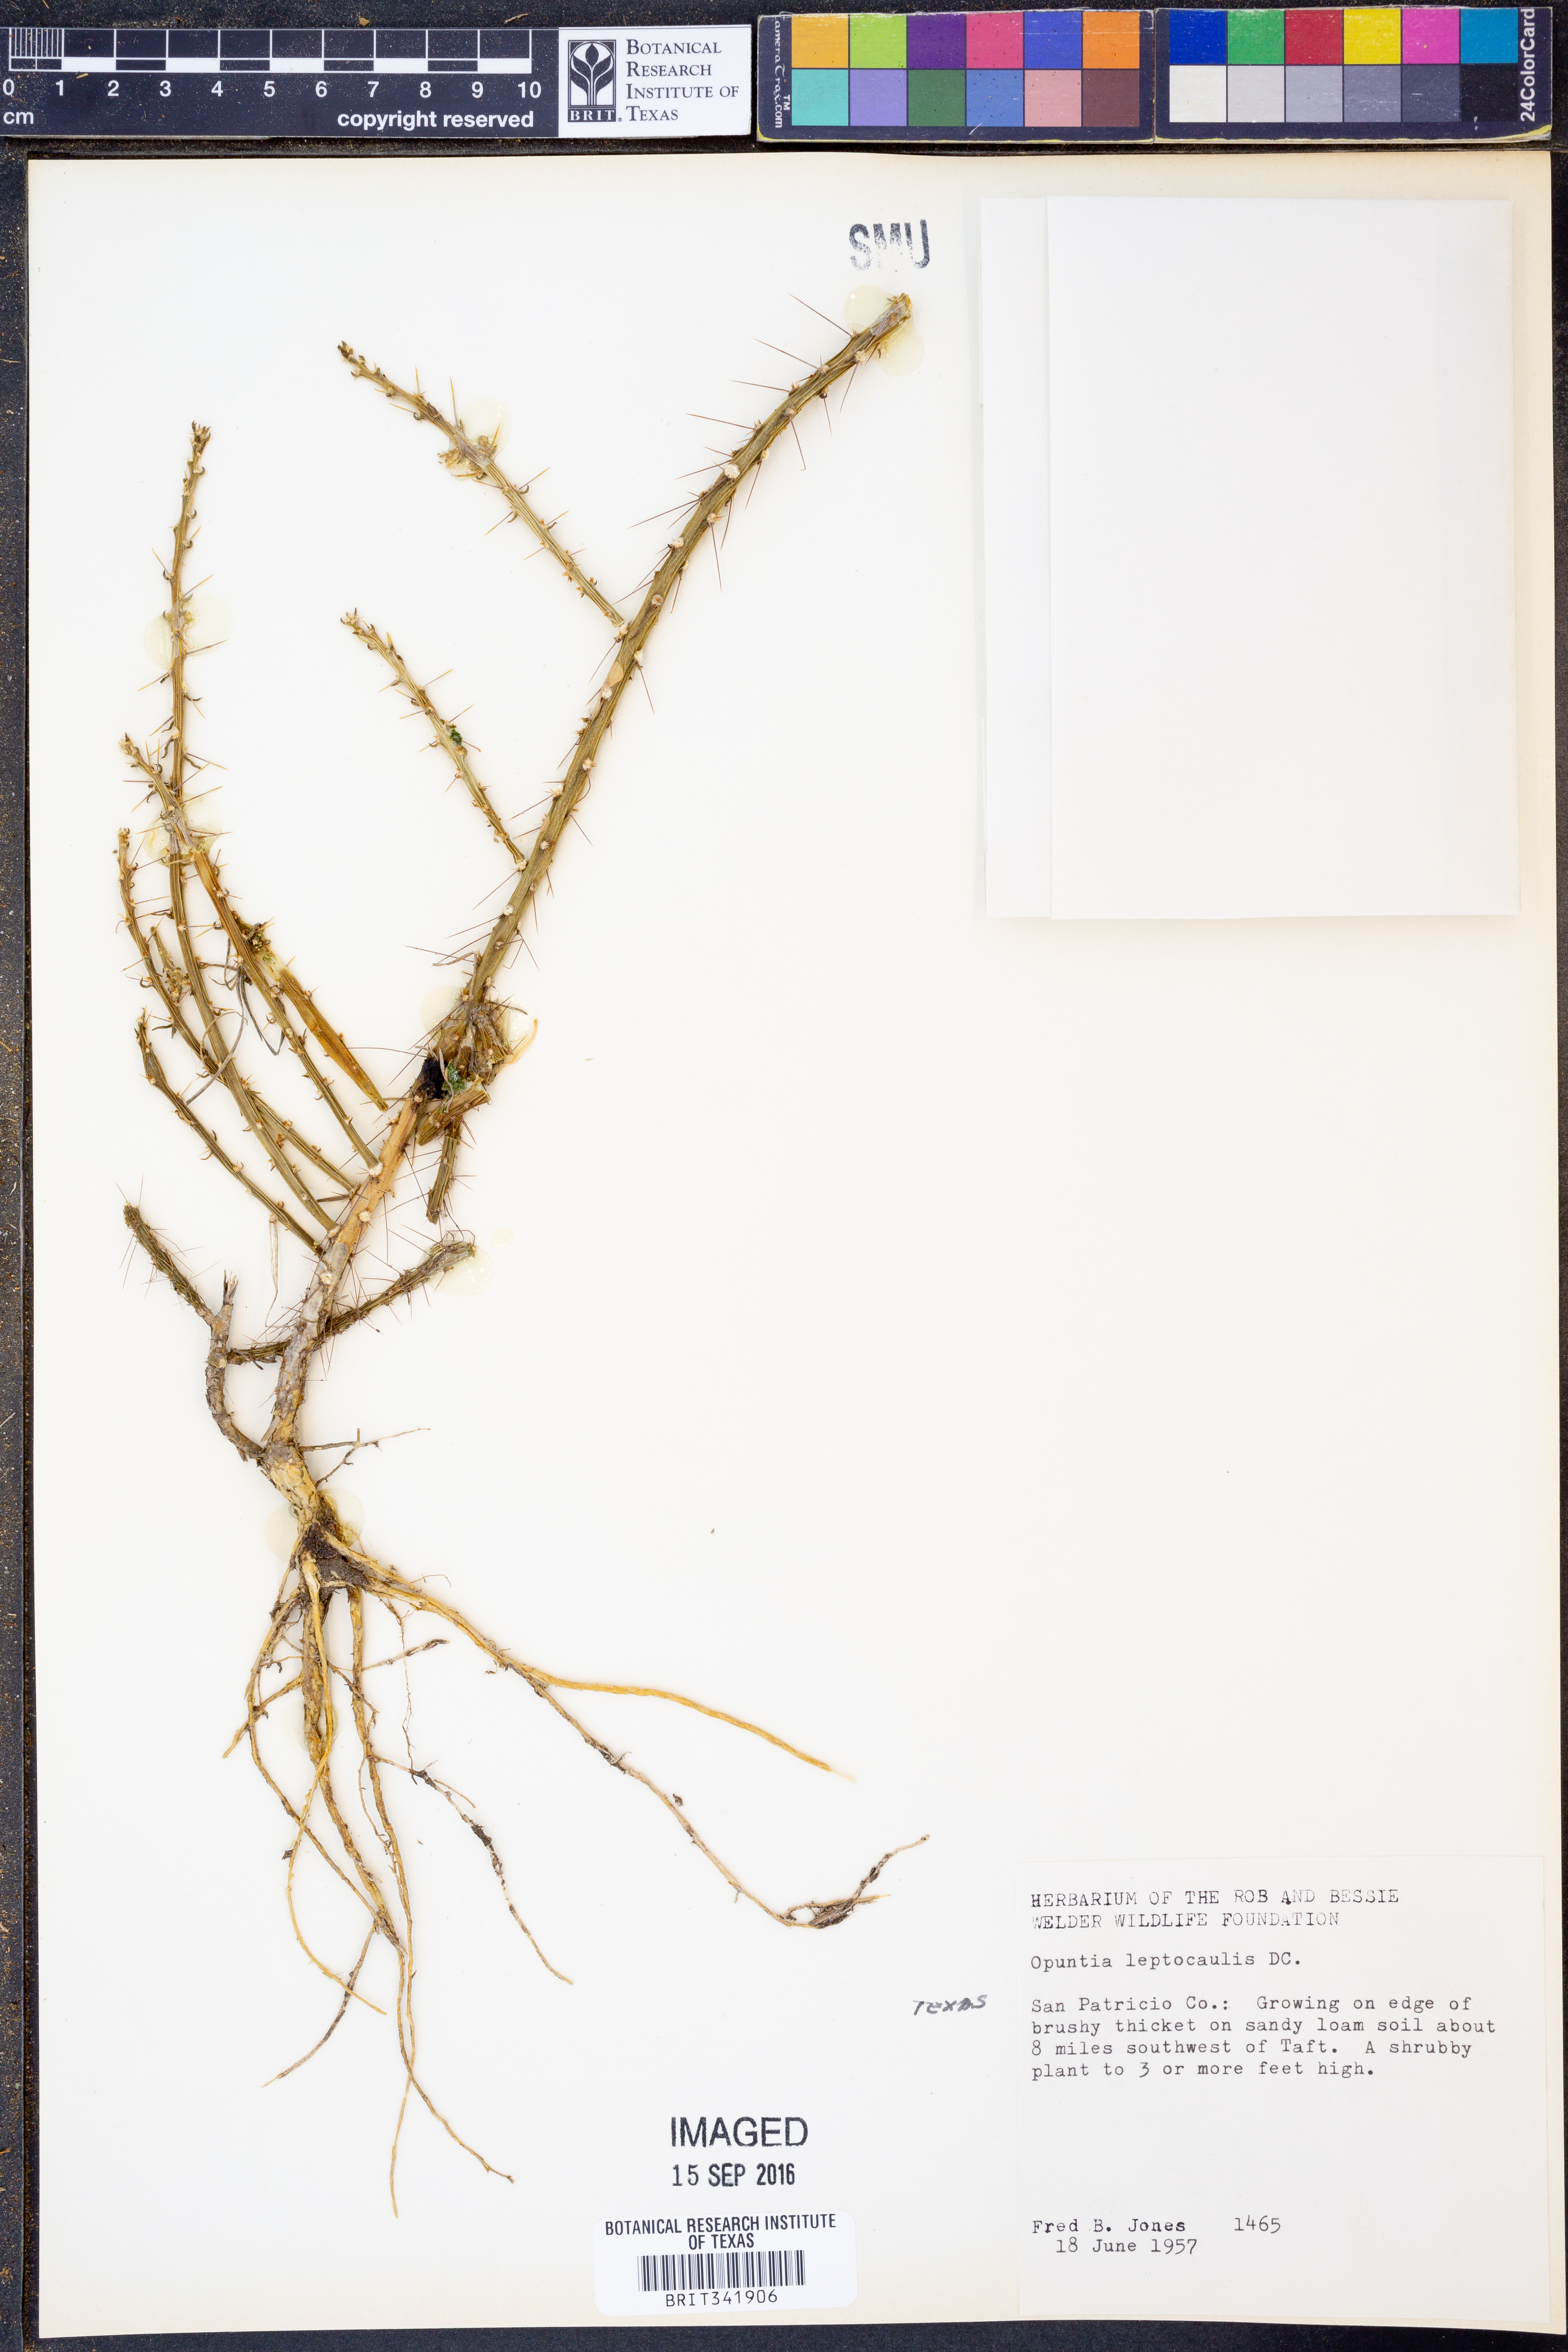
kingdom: Plantae
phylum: Tracheophyta
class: Magnoliopsida
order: Caryophyllales
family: Cactaceae
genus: Cylindropuntia
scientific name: Cylindropuntia leptocaulis
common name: Christmas cactus
